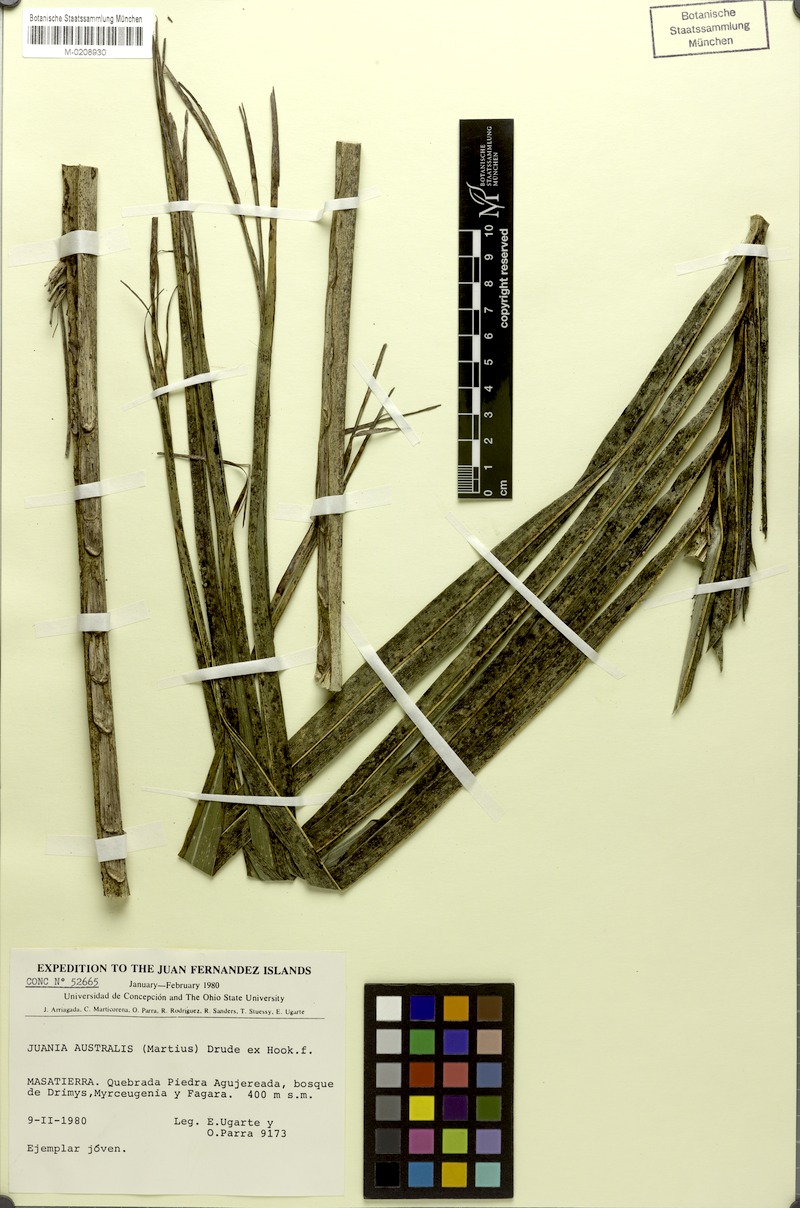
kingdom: Plantae
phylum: Tracheophyta
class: Liliopsida
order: Arecales
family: Arecaceae
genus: Juania
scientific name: Juania australis
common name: Chonta palm
